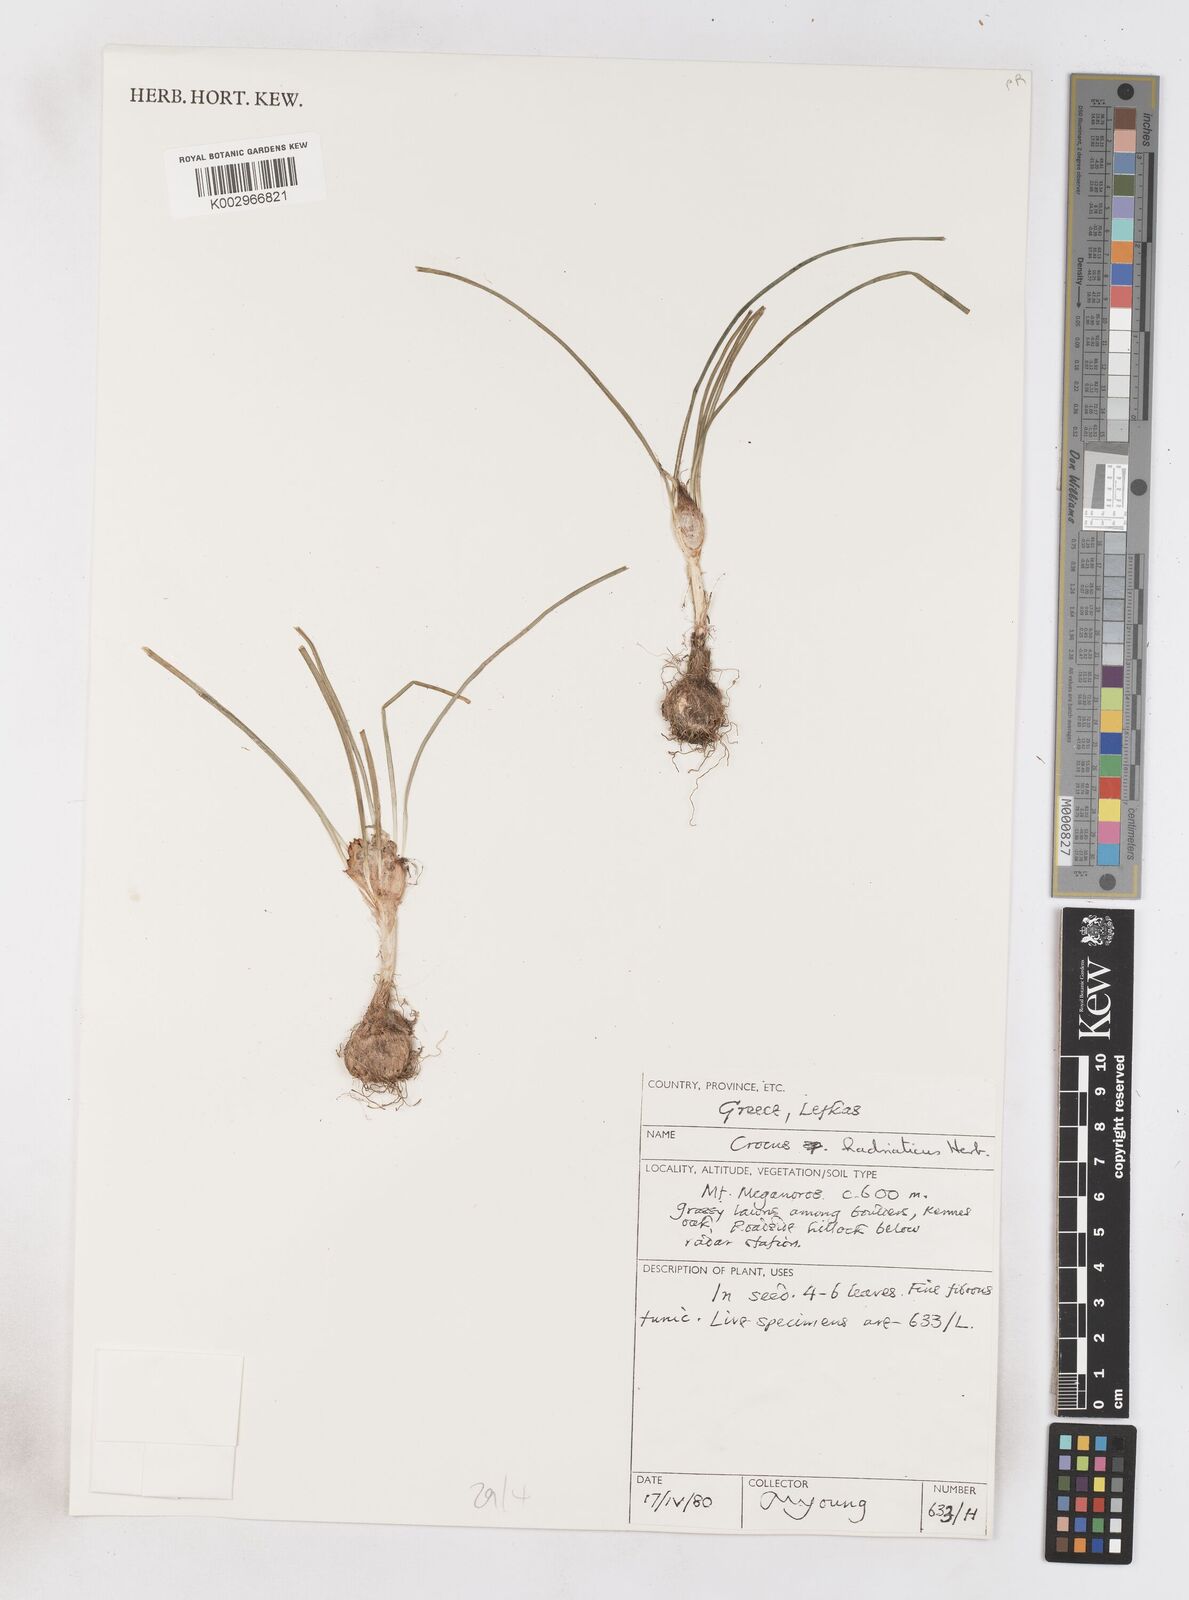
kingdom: Plantae
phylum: Tracheophyta
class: Liliopsida
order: Asparagales
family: Iridaceae
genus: Crocus
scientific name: Crocus hadriaticus
